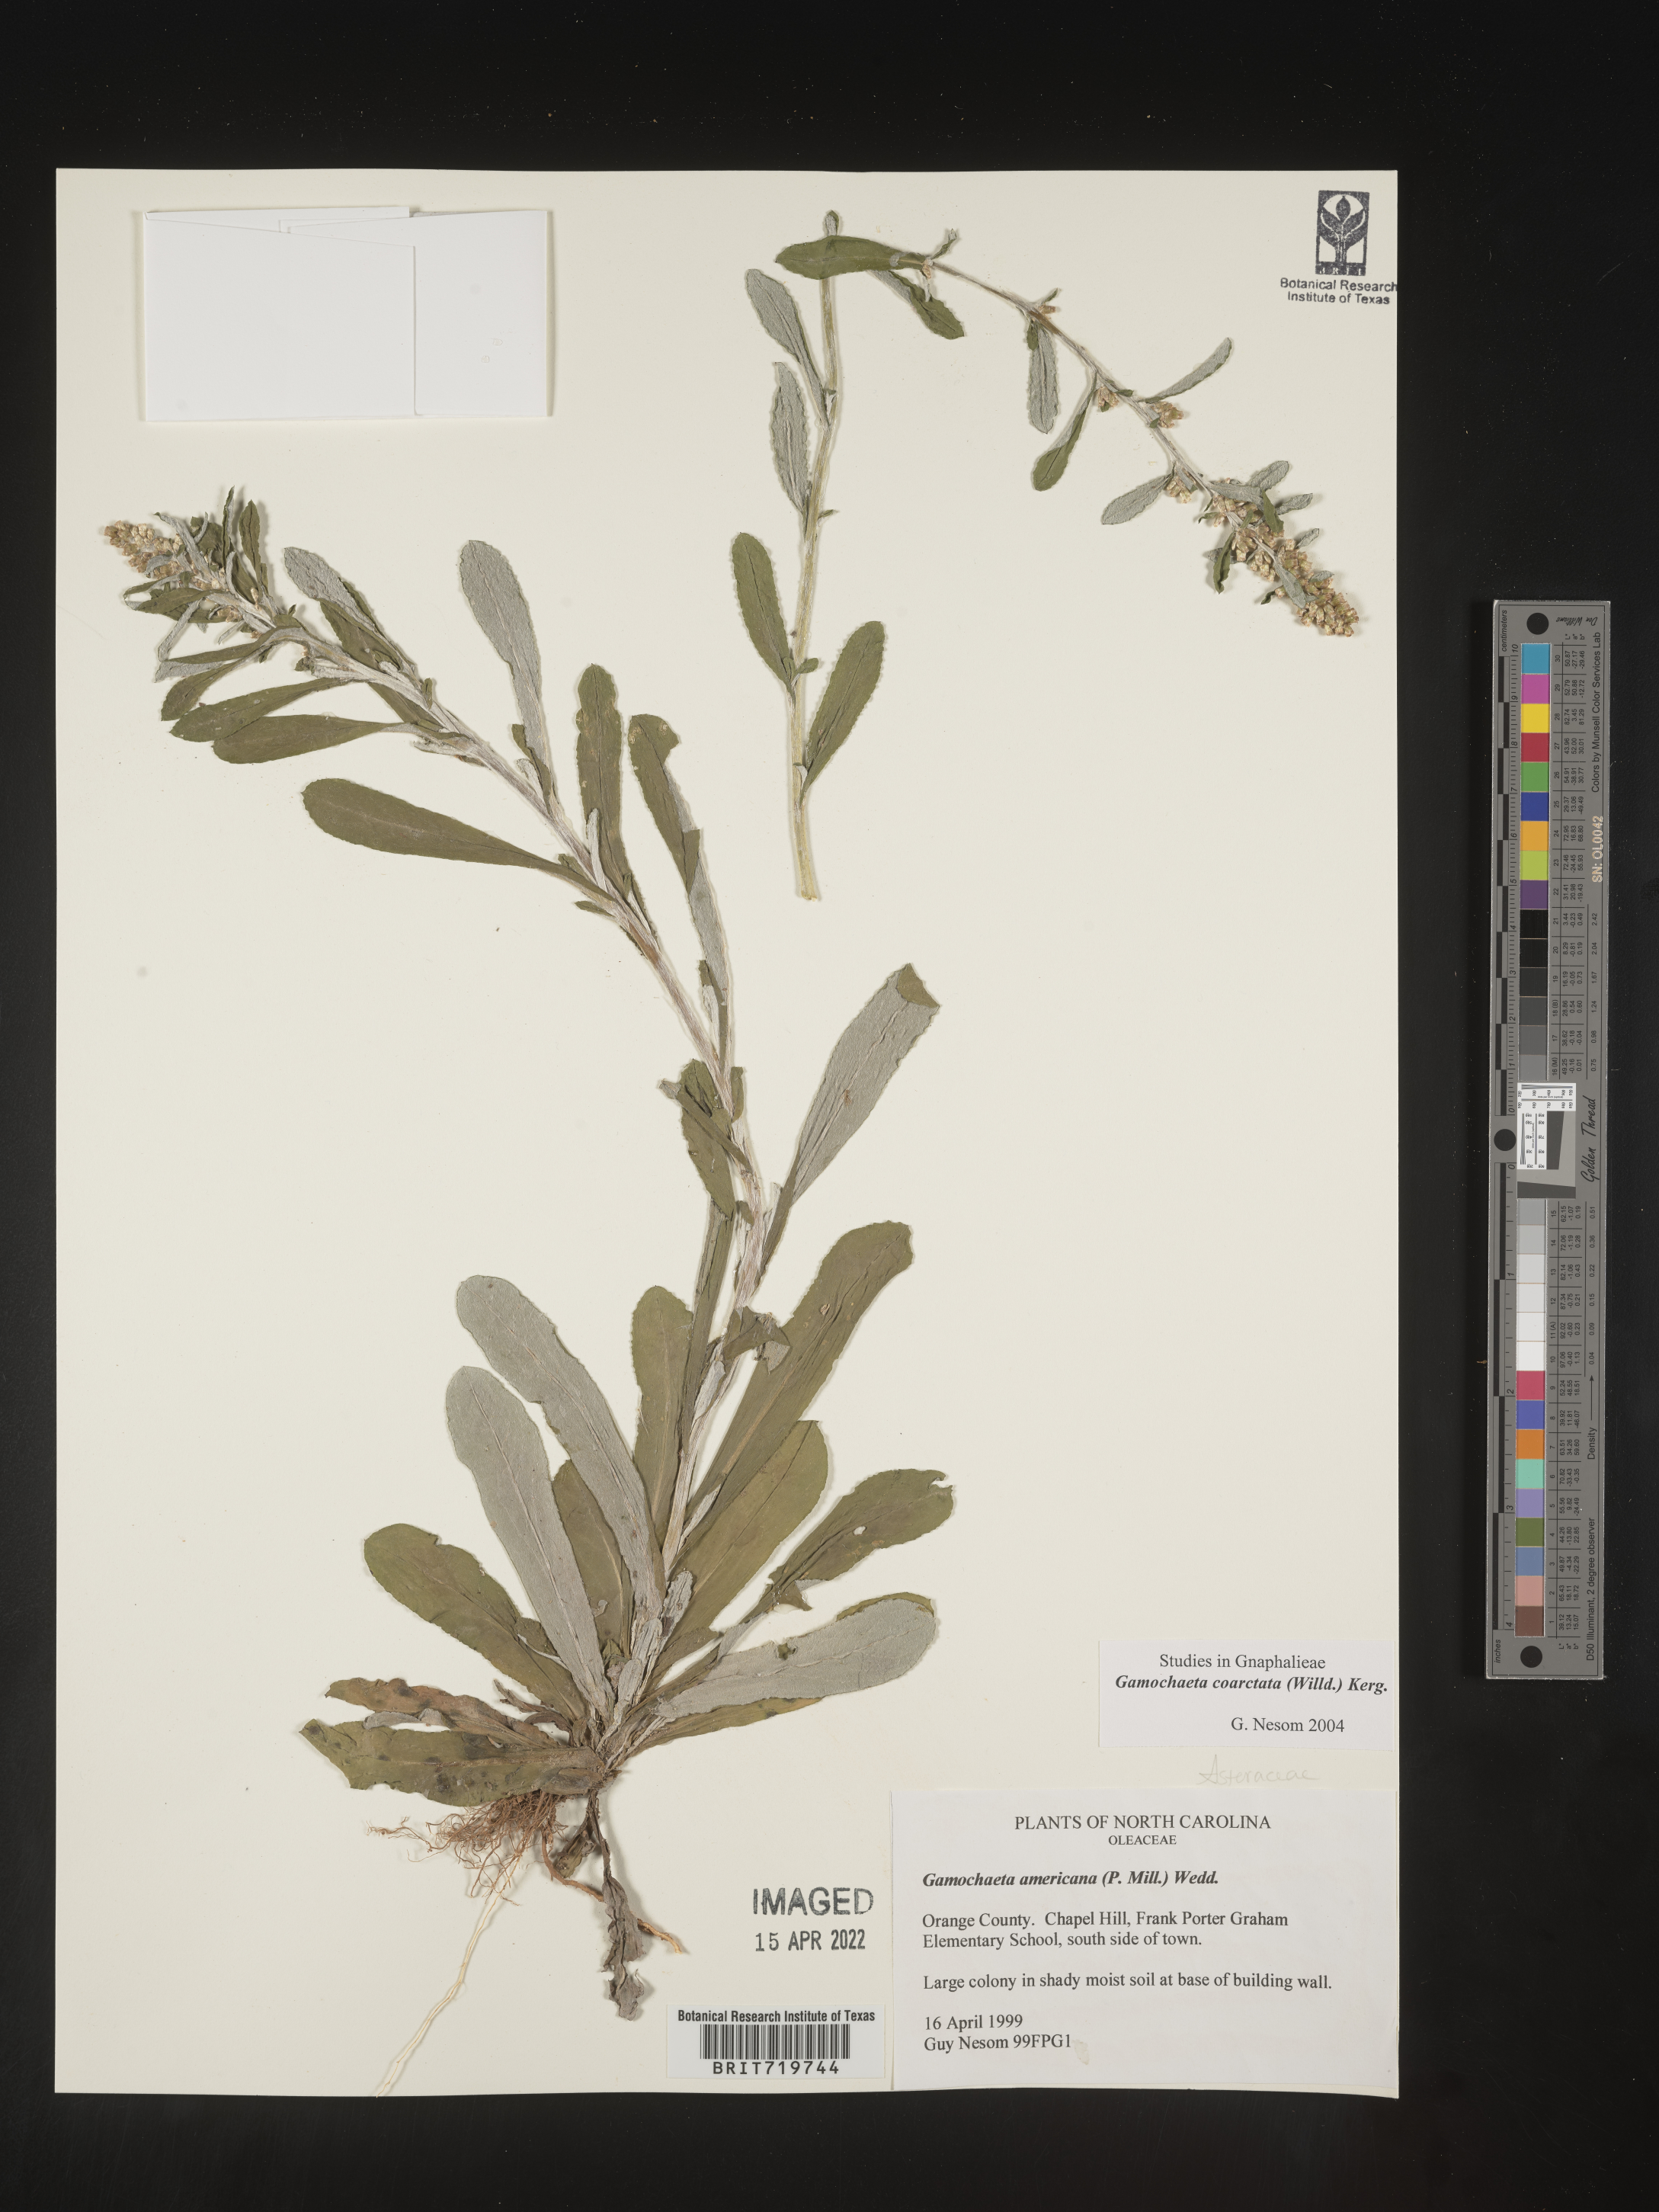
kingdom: Plantae
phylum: Tracheophyta
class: Magnoliopsida
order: Asterales
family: Asteraceae
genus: Gamochaeta
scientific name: Gamochaeta americana
